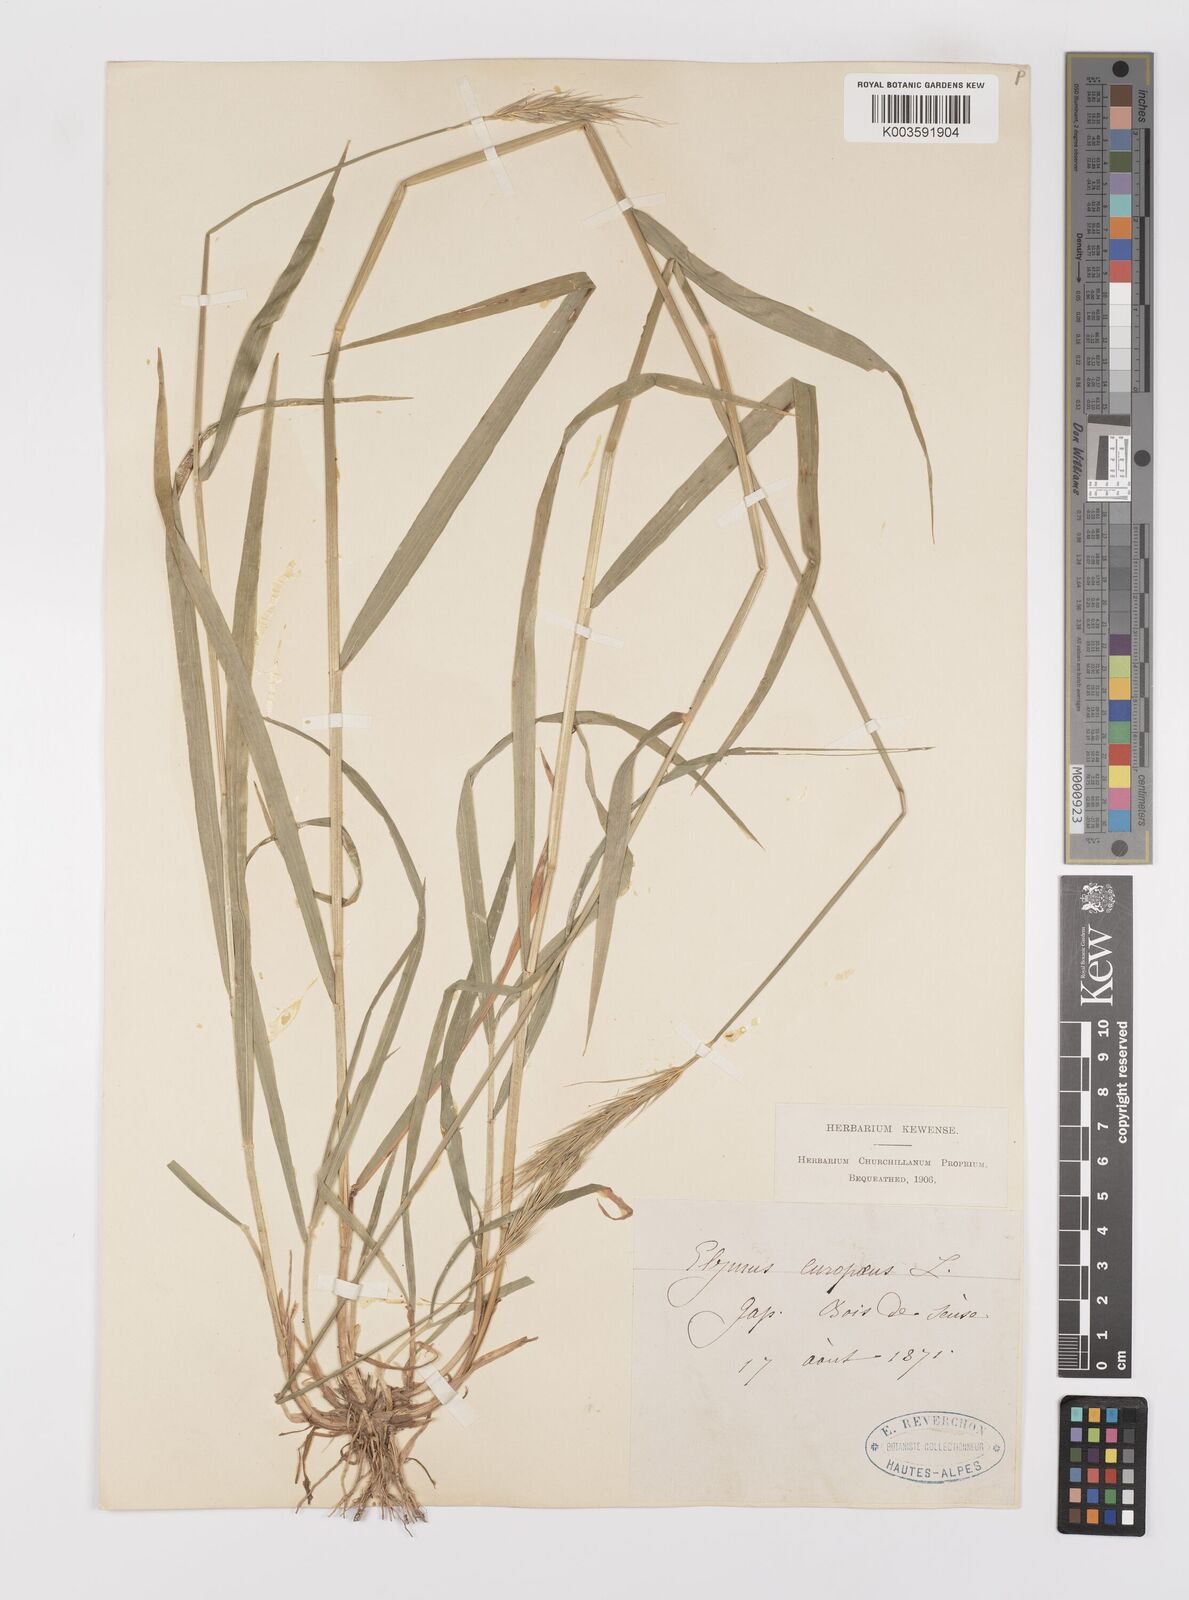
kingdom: Plantae
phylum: Tracheophyta
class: Liliopsida
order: Poales
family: Poaceae
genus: Hordelymus
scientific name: Hordelymus europaeus
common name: Wood-barley
